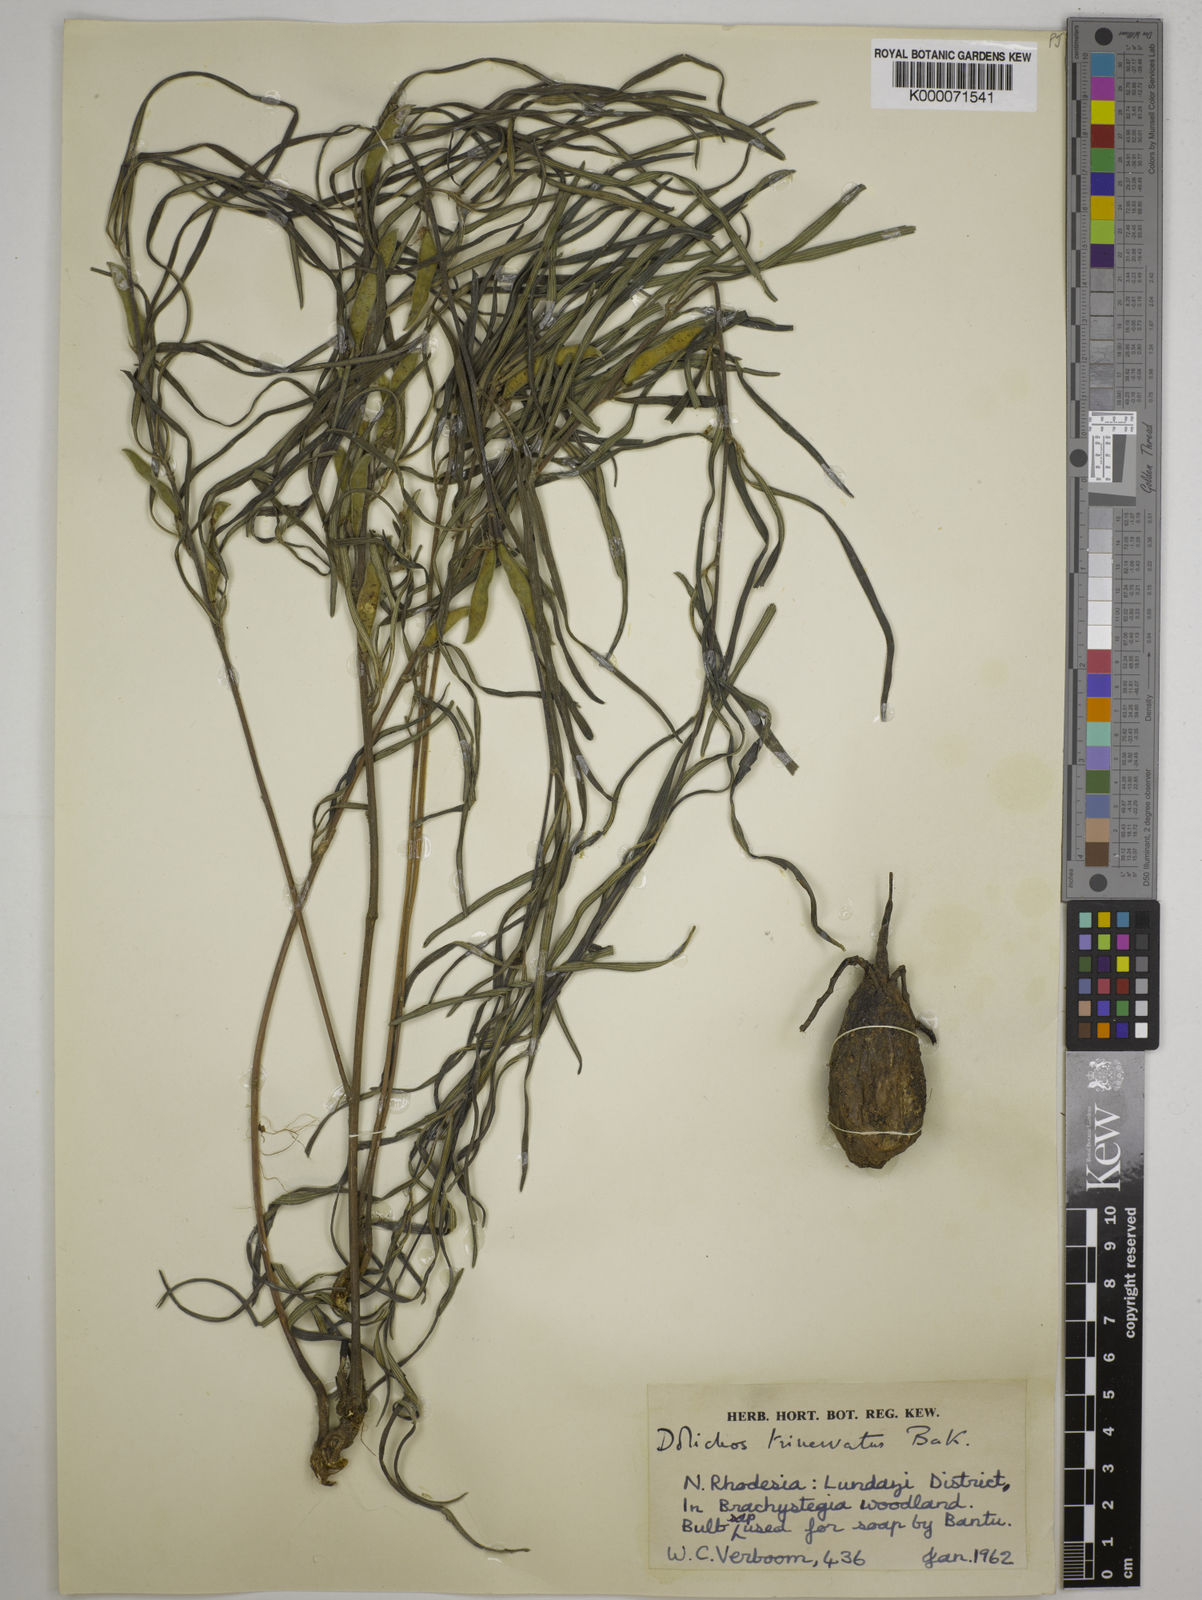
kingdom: Plantae
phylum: Tracheophyta
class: Magnoliopsida
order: Fabales
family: Fabaceae
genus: Dolichos
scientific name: Dolichos trinervatus
